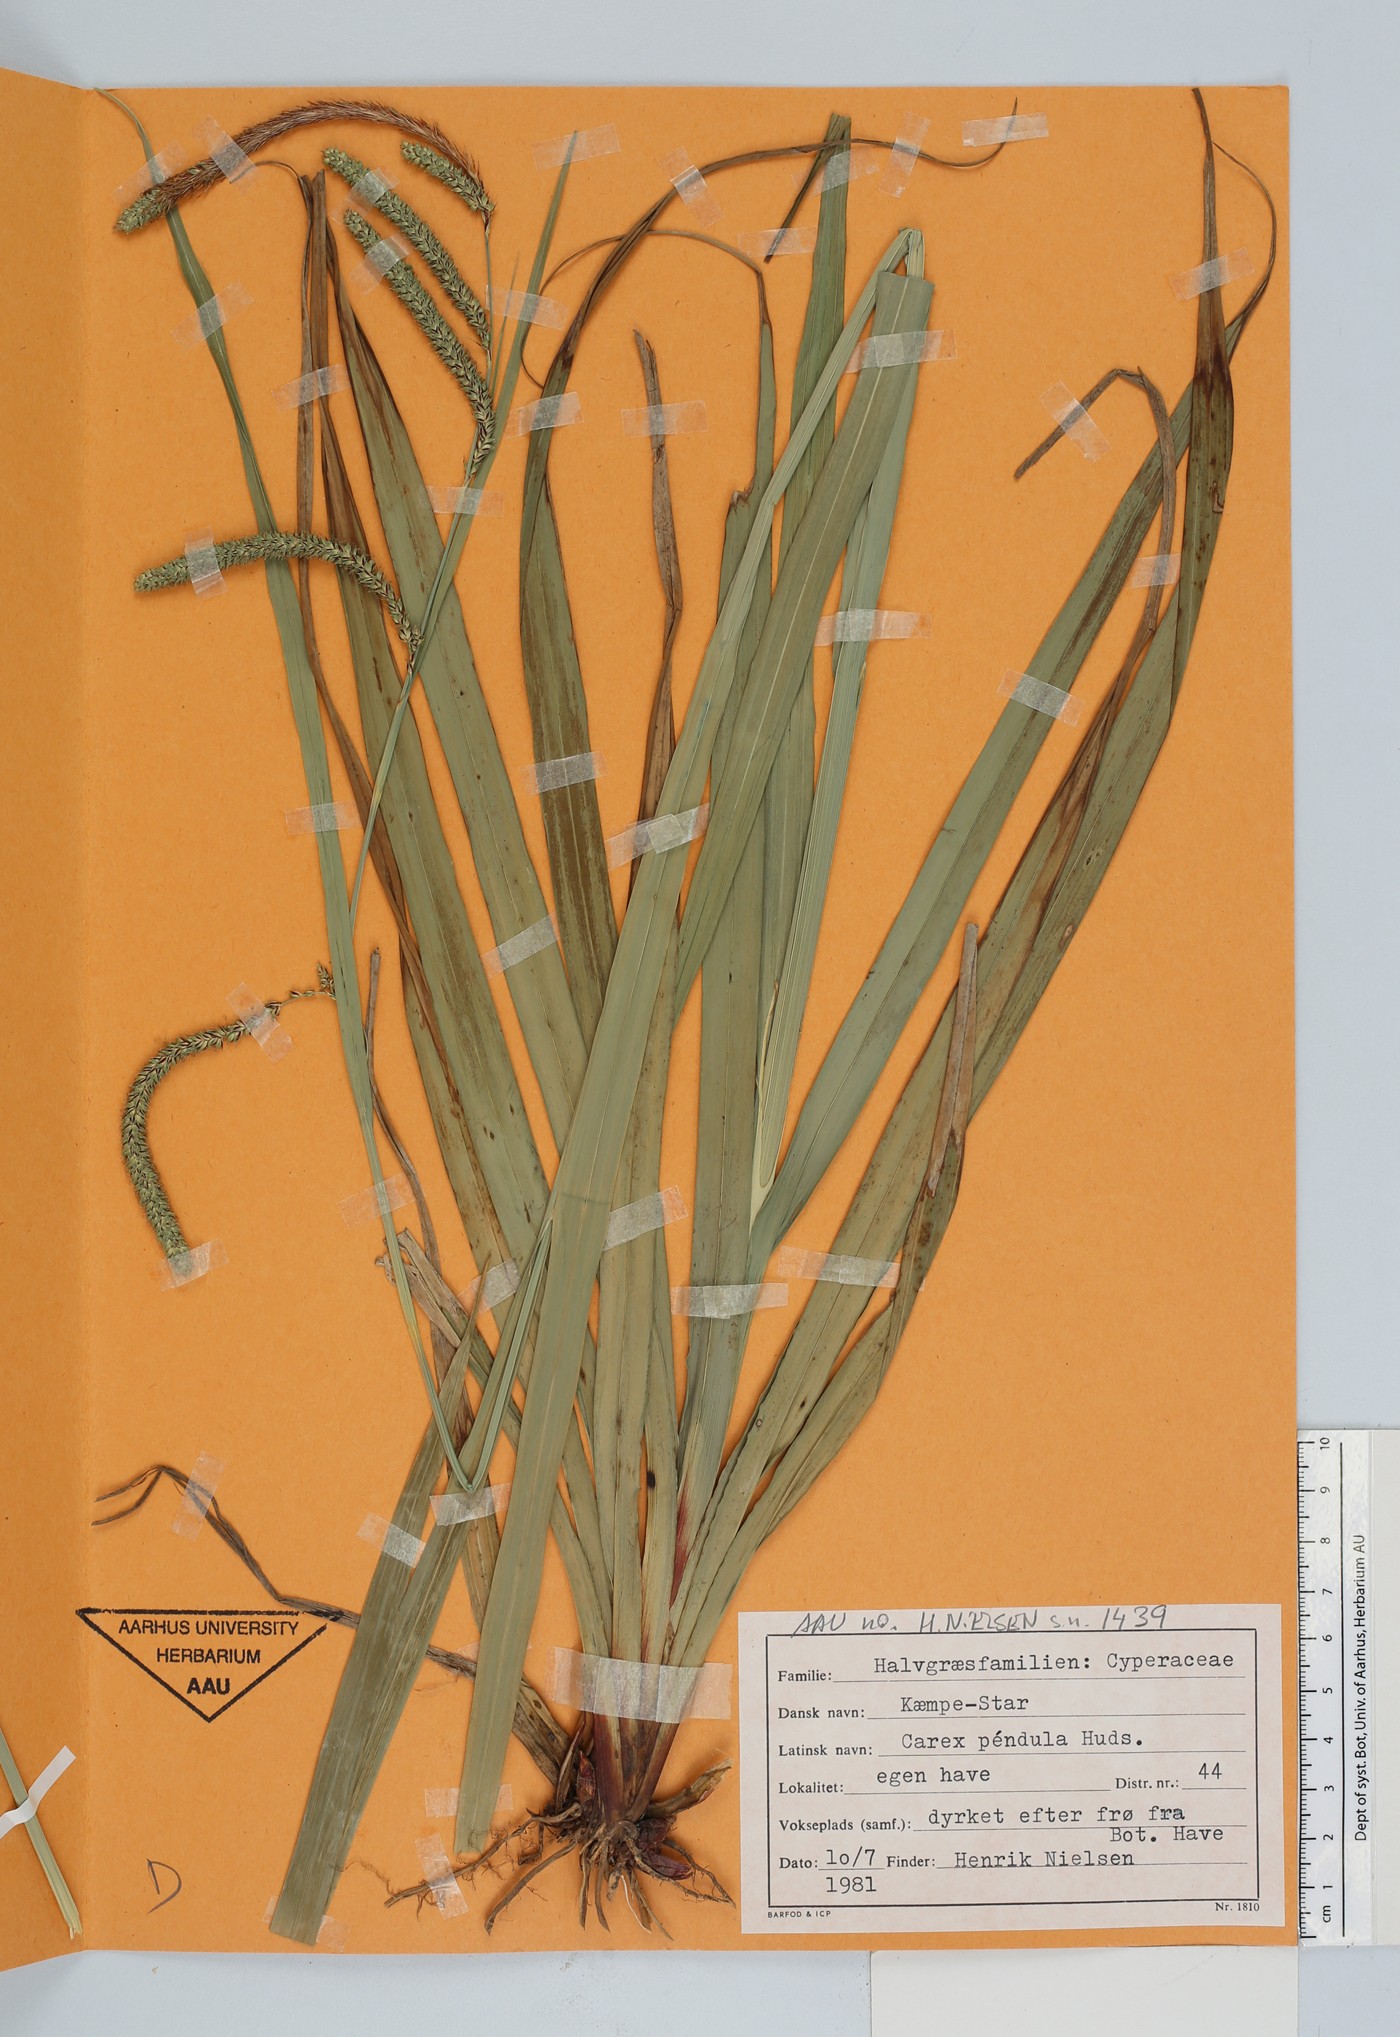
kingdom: Plantae
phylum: Tracheophyta
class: Liliopsida
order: Poales
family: Cyperaceae
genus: Carex
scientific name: Carex pendula
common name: Pendulous sedge
